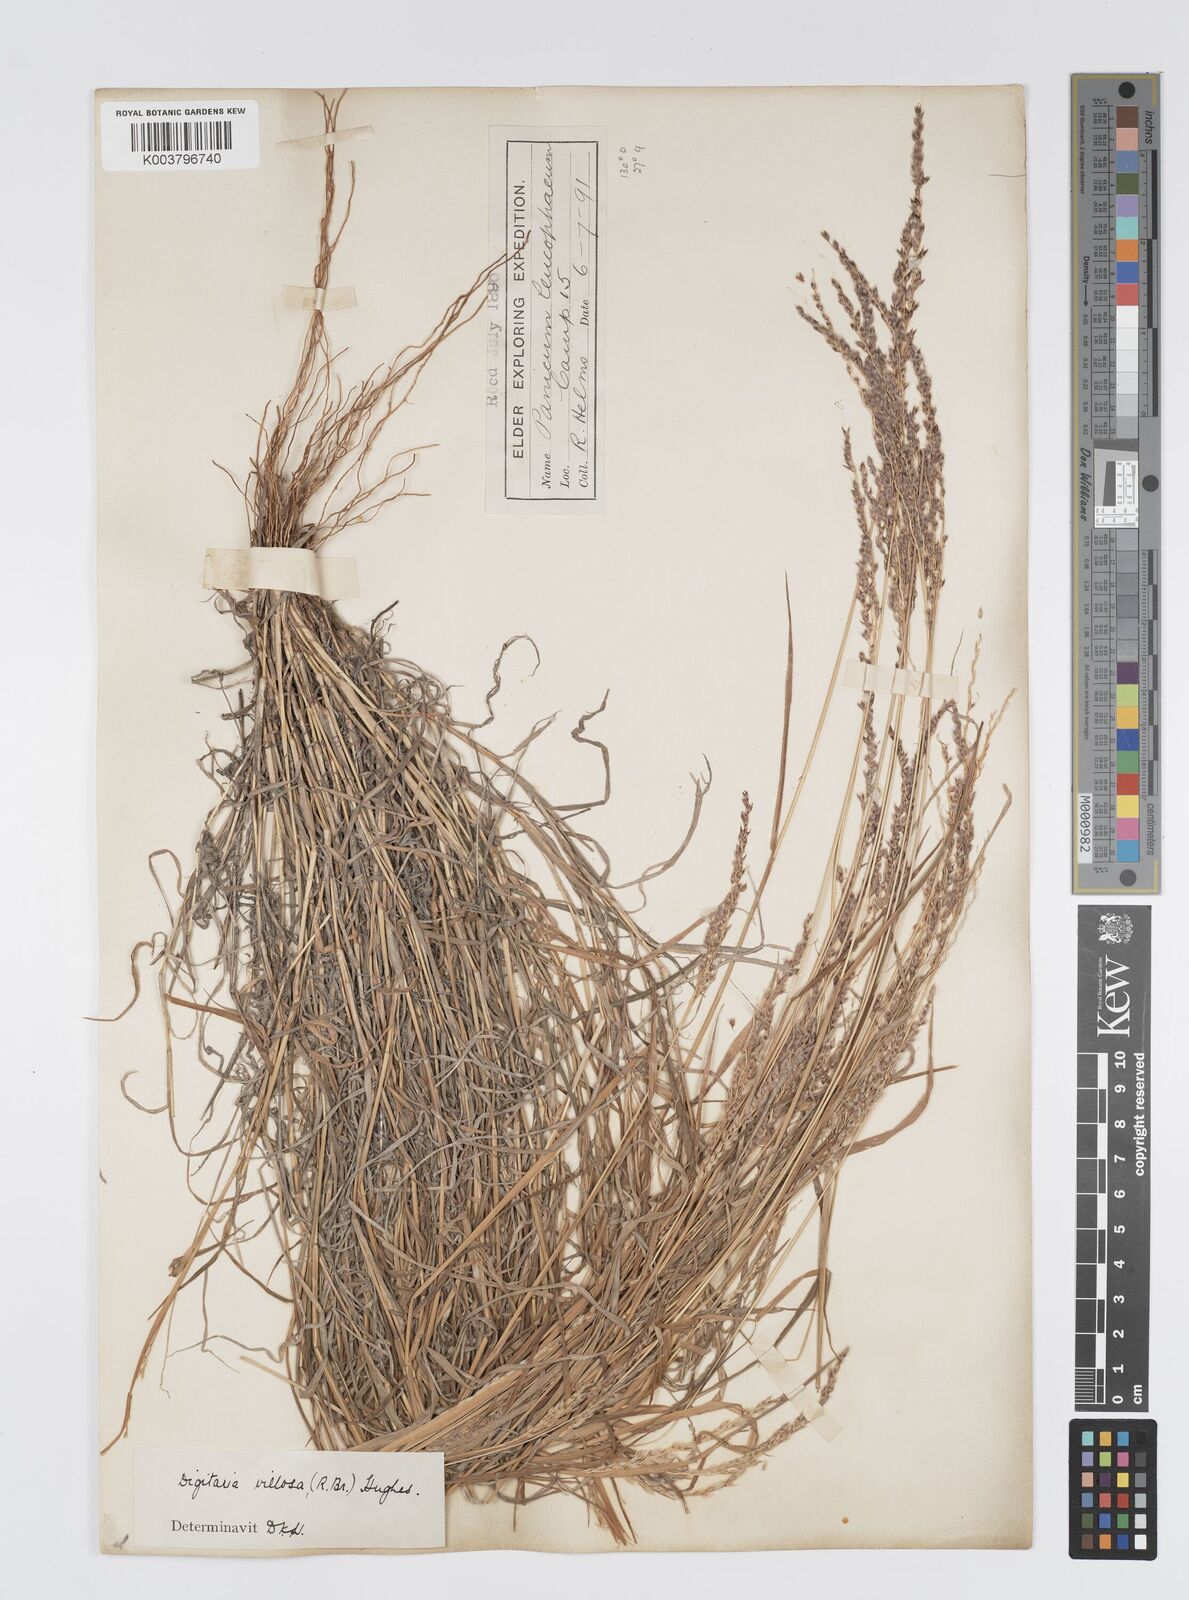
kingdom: Plantae
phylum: Tracheophyta
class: Liliopsida
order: Poales
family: Poaceae
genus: Digitaria
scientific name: Digitaria brownii
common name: Cotton grass
